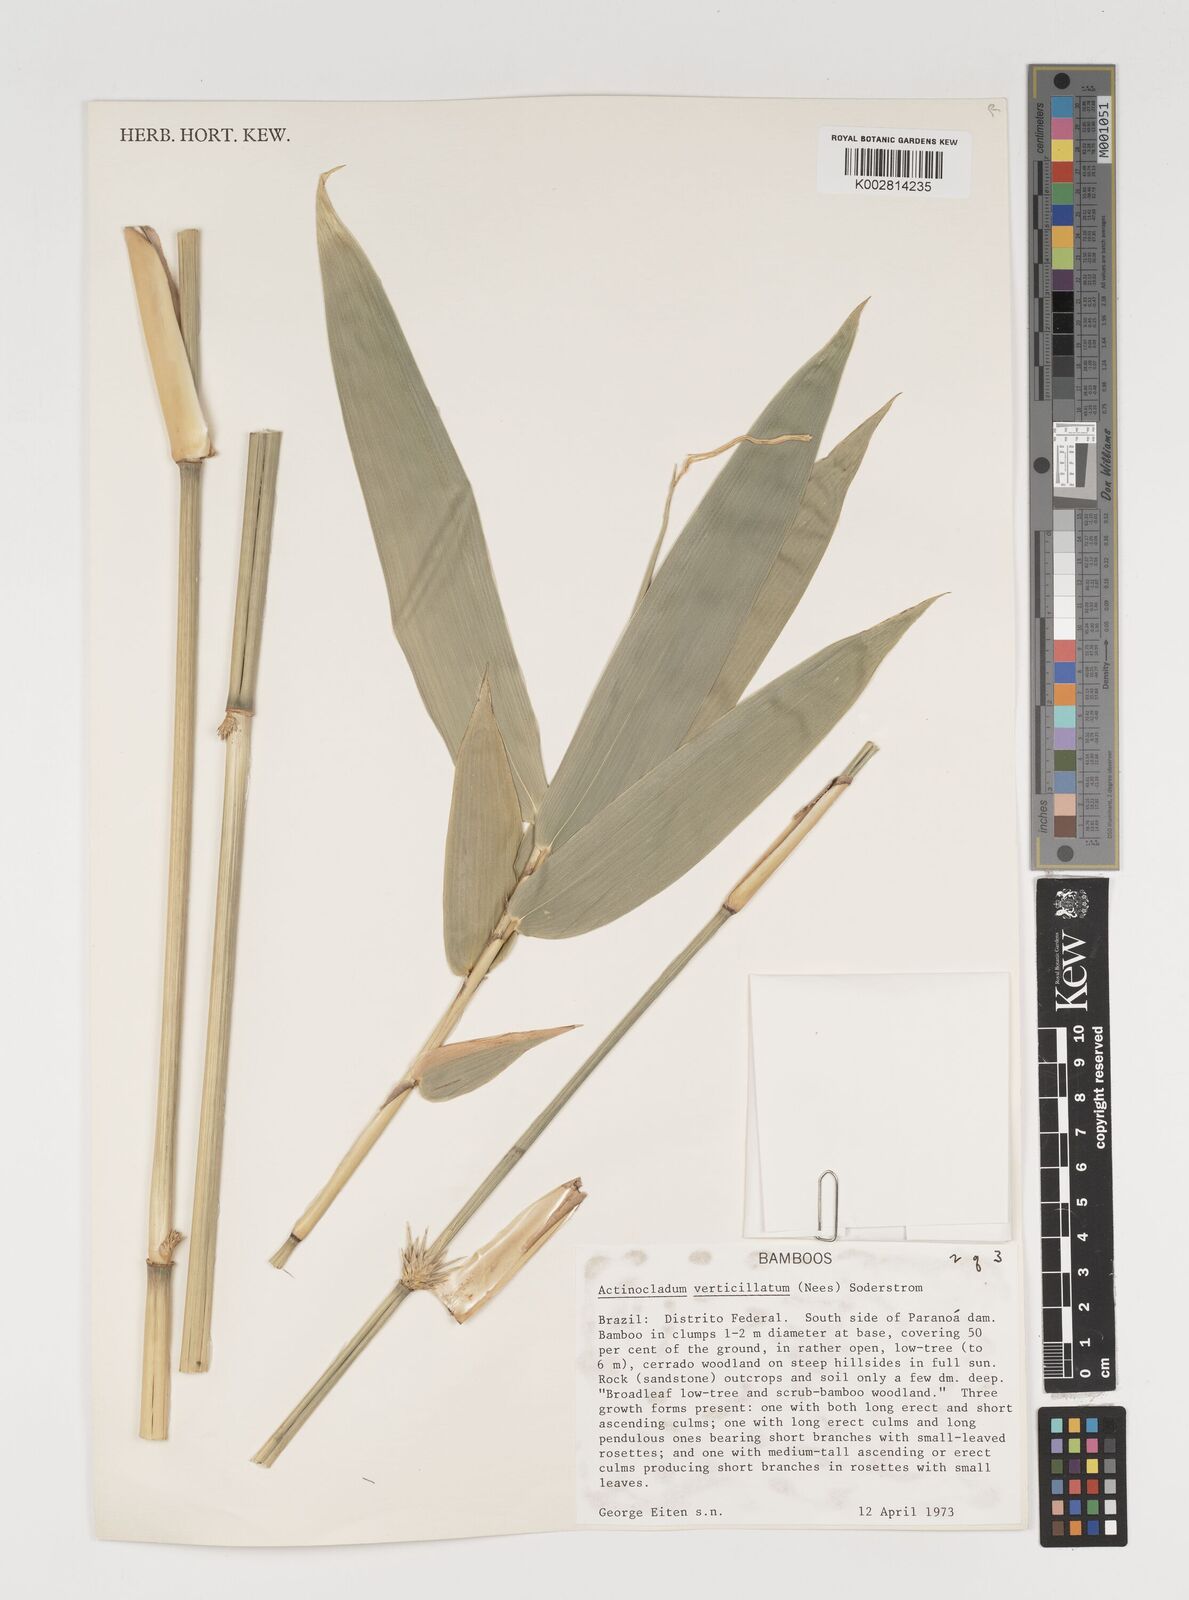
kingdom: Plantae
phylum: Tracheophyta
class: Liliopsida
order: Poales
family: Poaceae
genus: Actinocladum
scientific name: Actinocladum verticillatum
